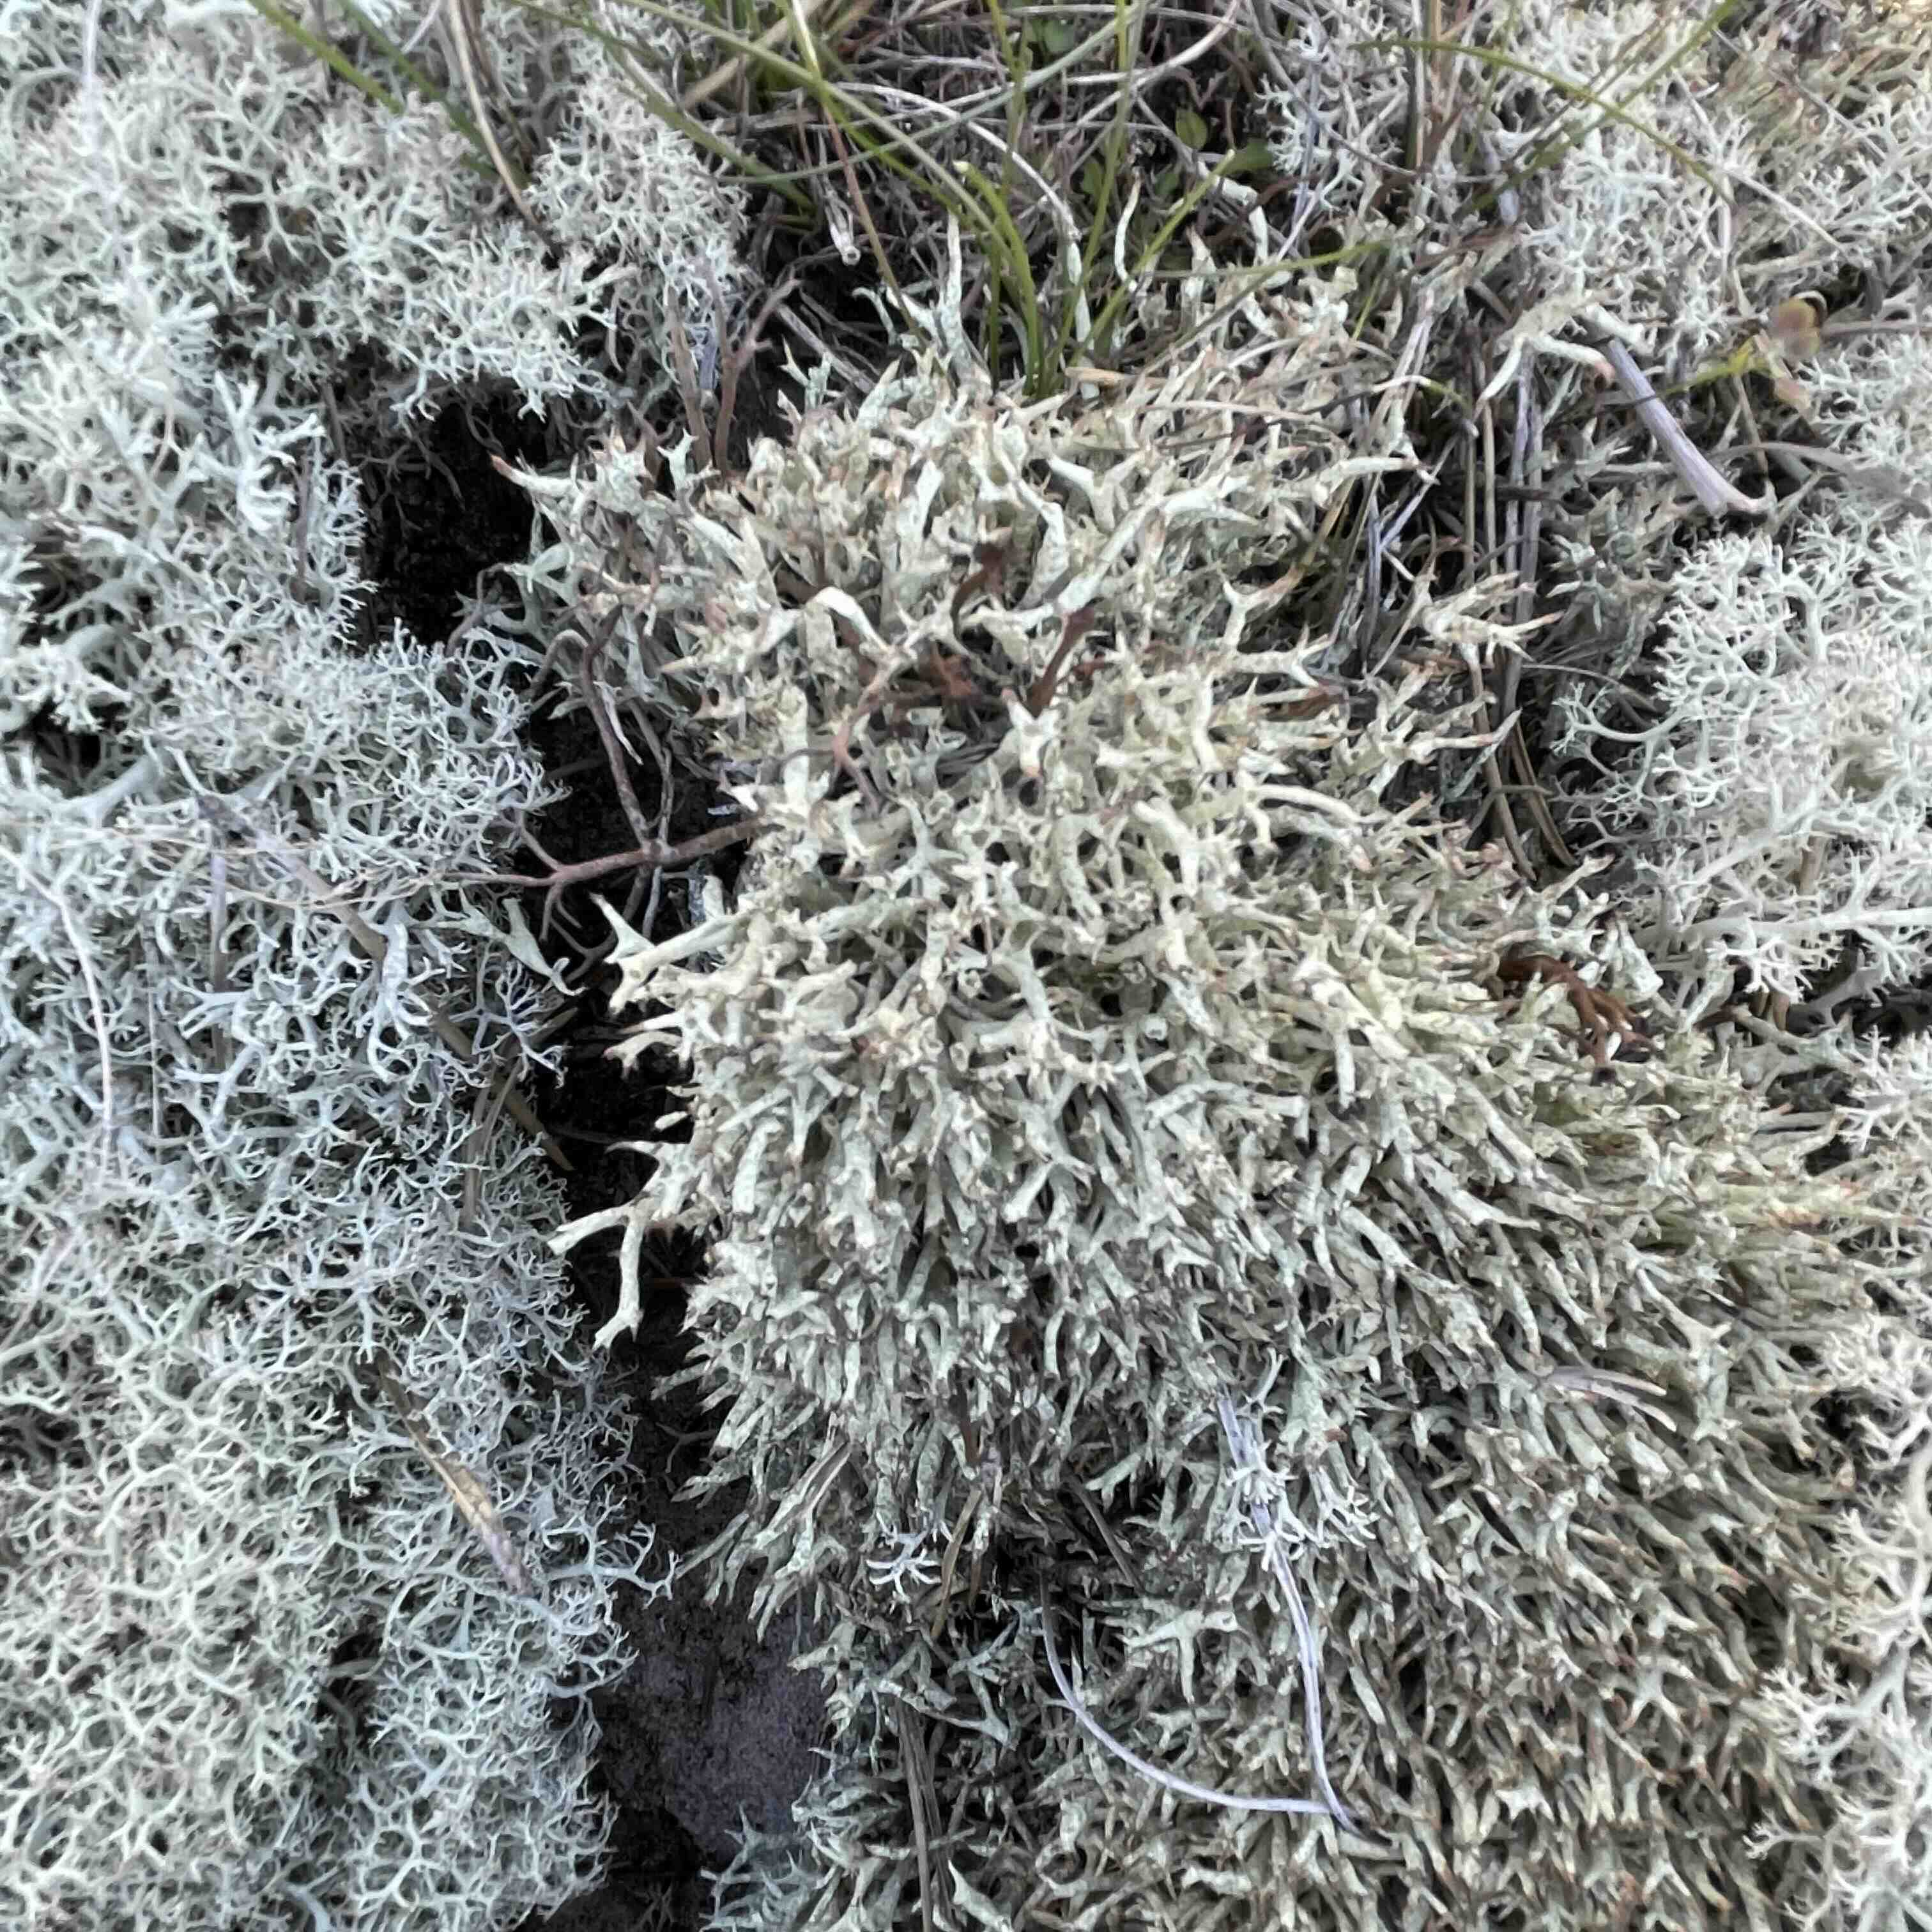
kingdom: Fungi
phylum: Ascomycota
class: Lecanoromycetes
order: Lecanorales
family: Cladoniaceae
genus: Cladonia
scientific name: Cladonia uncialis
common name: pigget bægerlav
